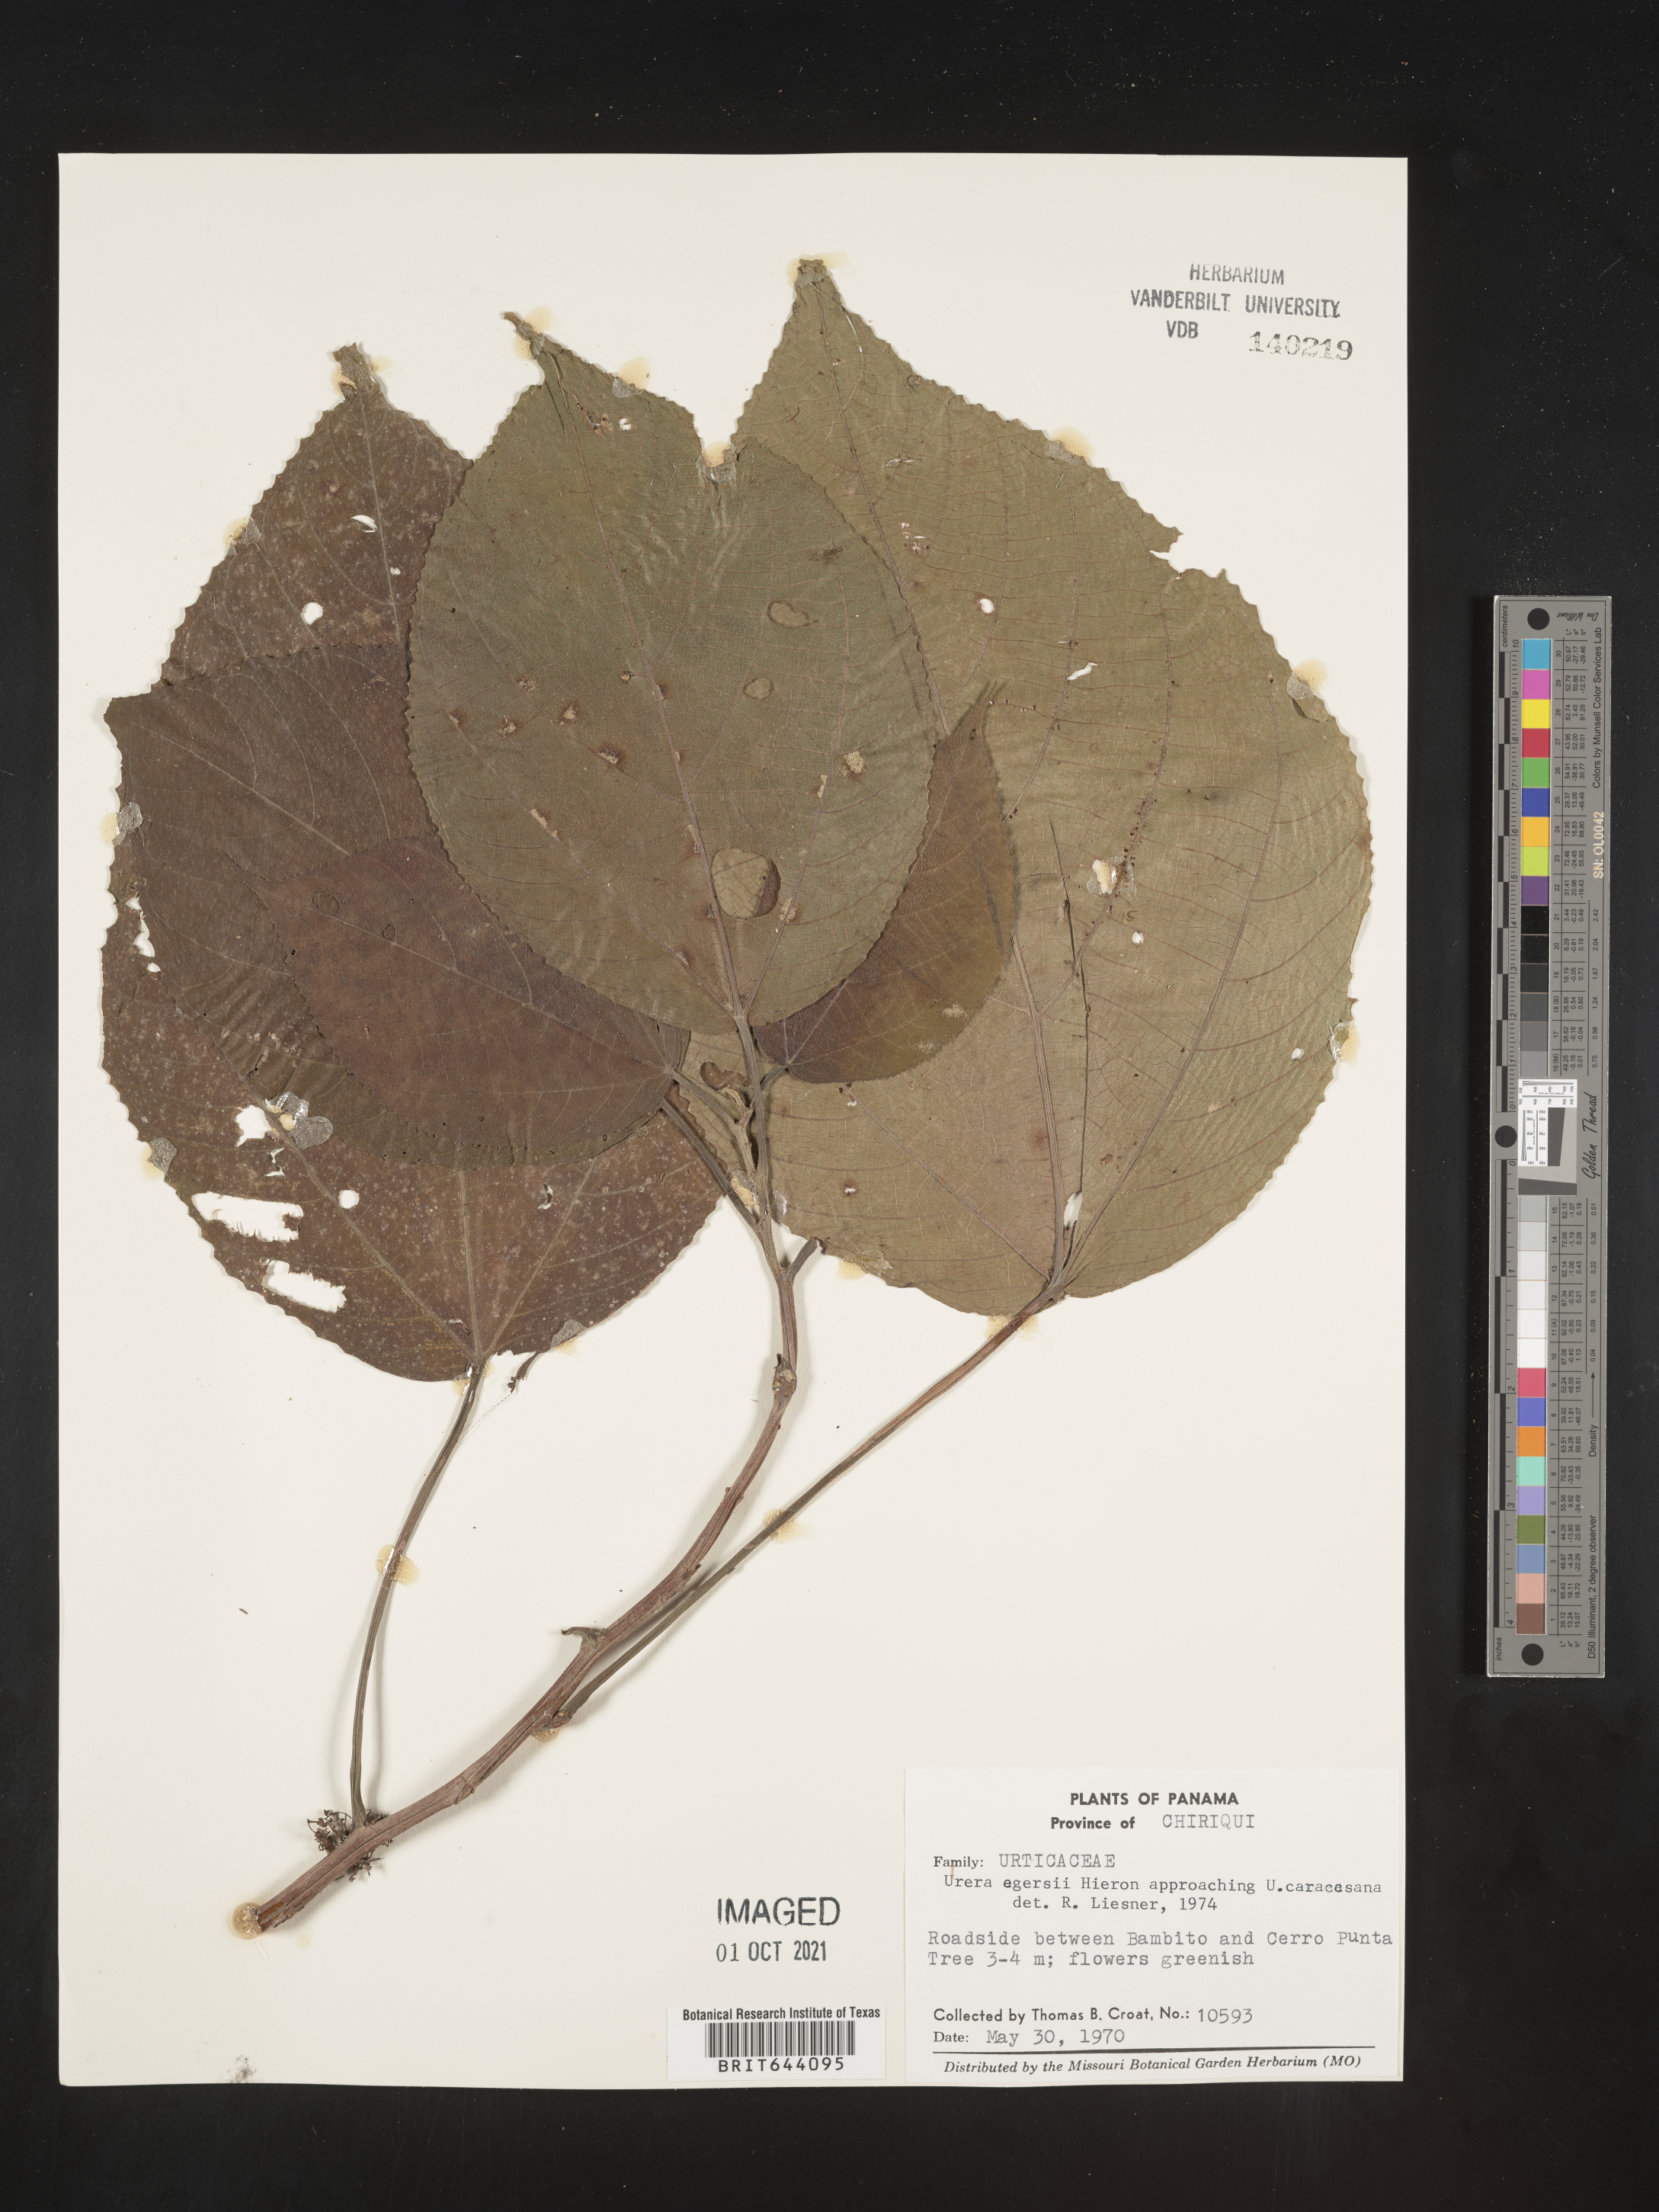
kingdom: Plantae
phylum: Tracheophyta
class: Magnoliopsida
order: Rosales
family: Urticaceae
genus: Urera
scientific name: Urera
